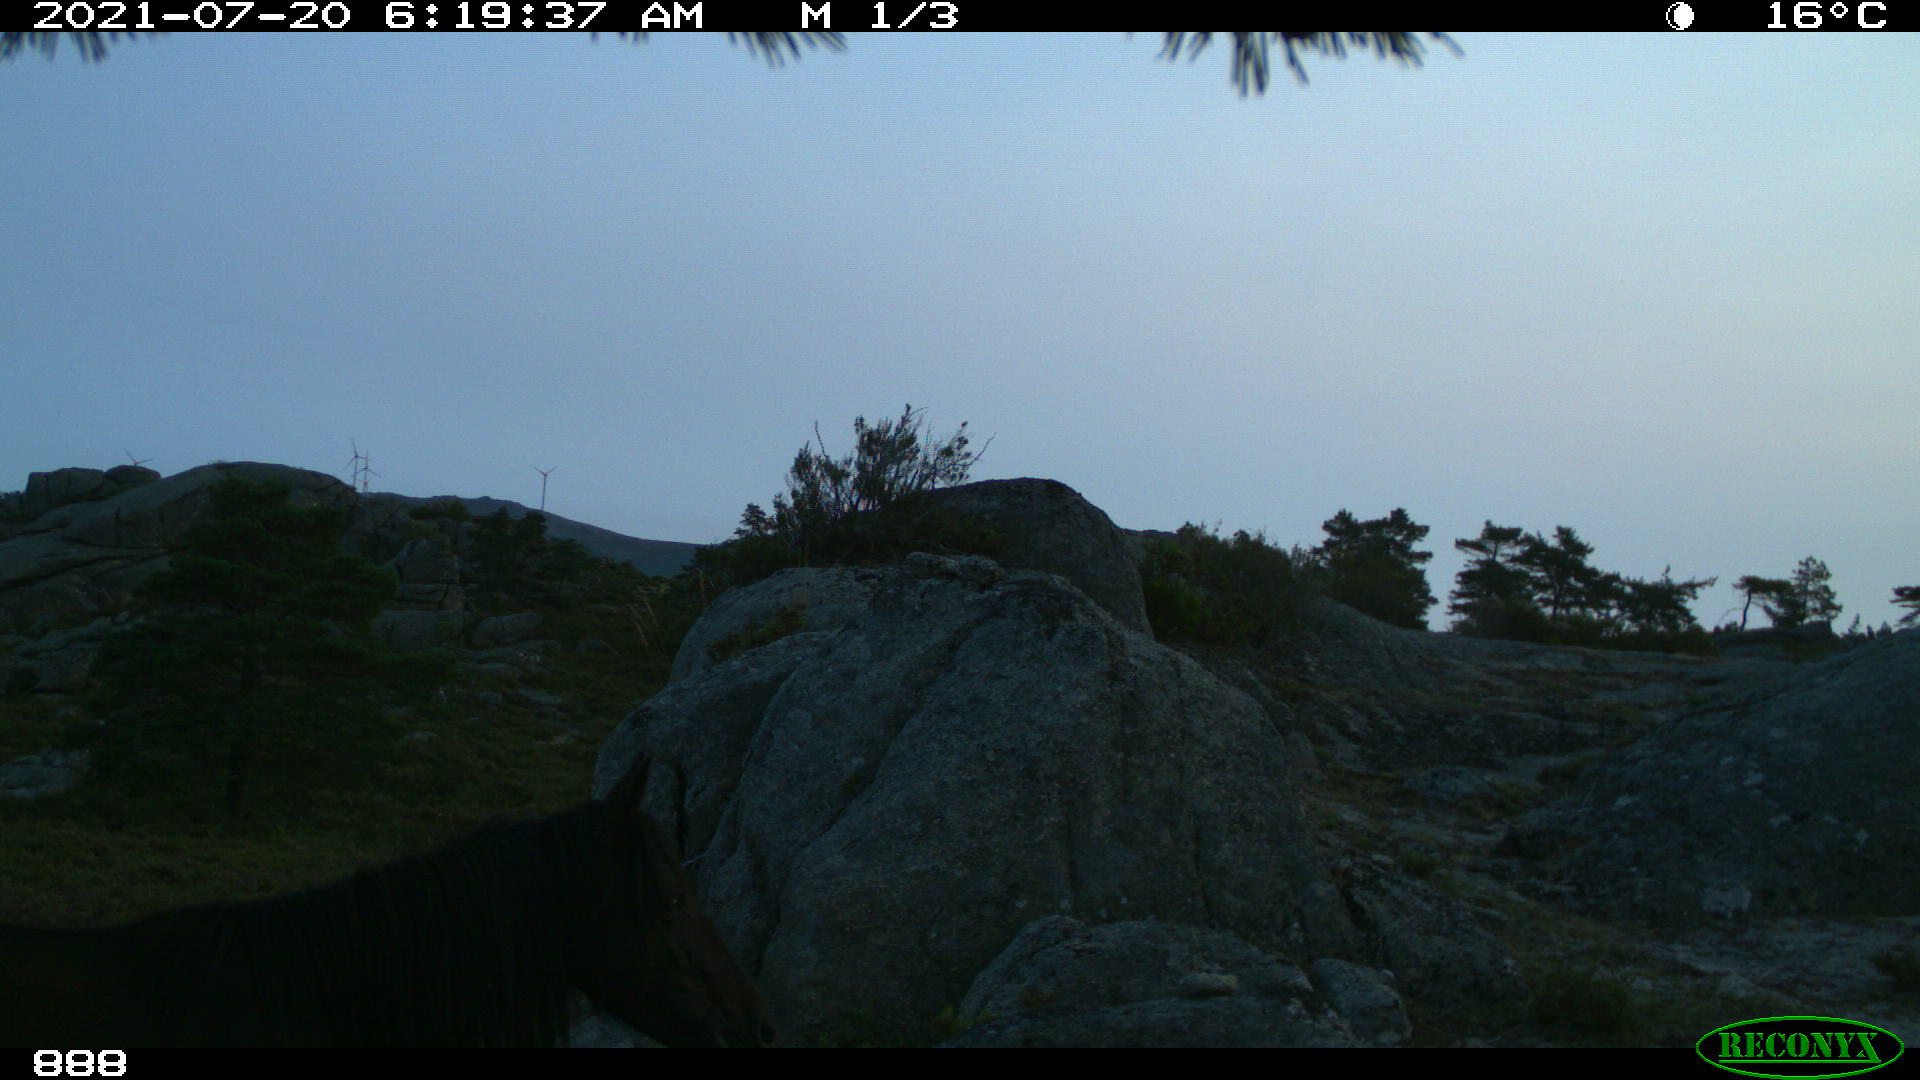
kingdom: Animalia
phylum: Chordata
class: Mammalia
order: Perissodactyla
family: Equidae
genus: Equus
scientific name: Equus caballus
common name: Horse
